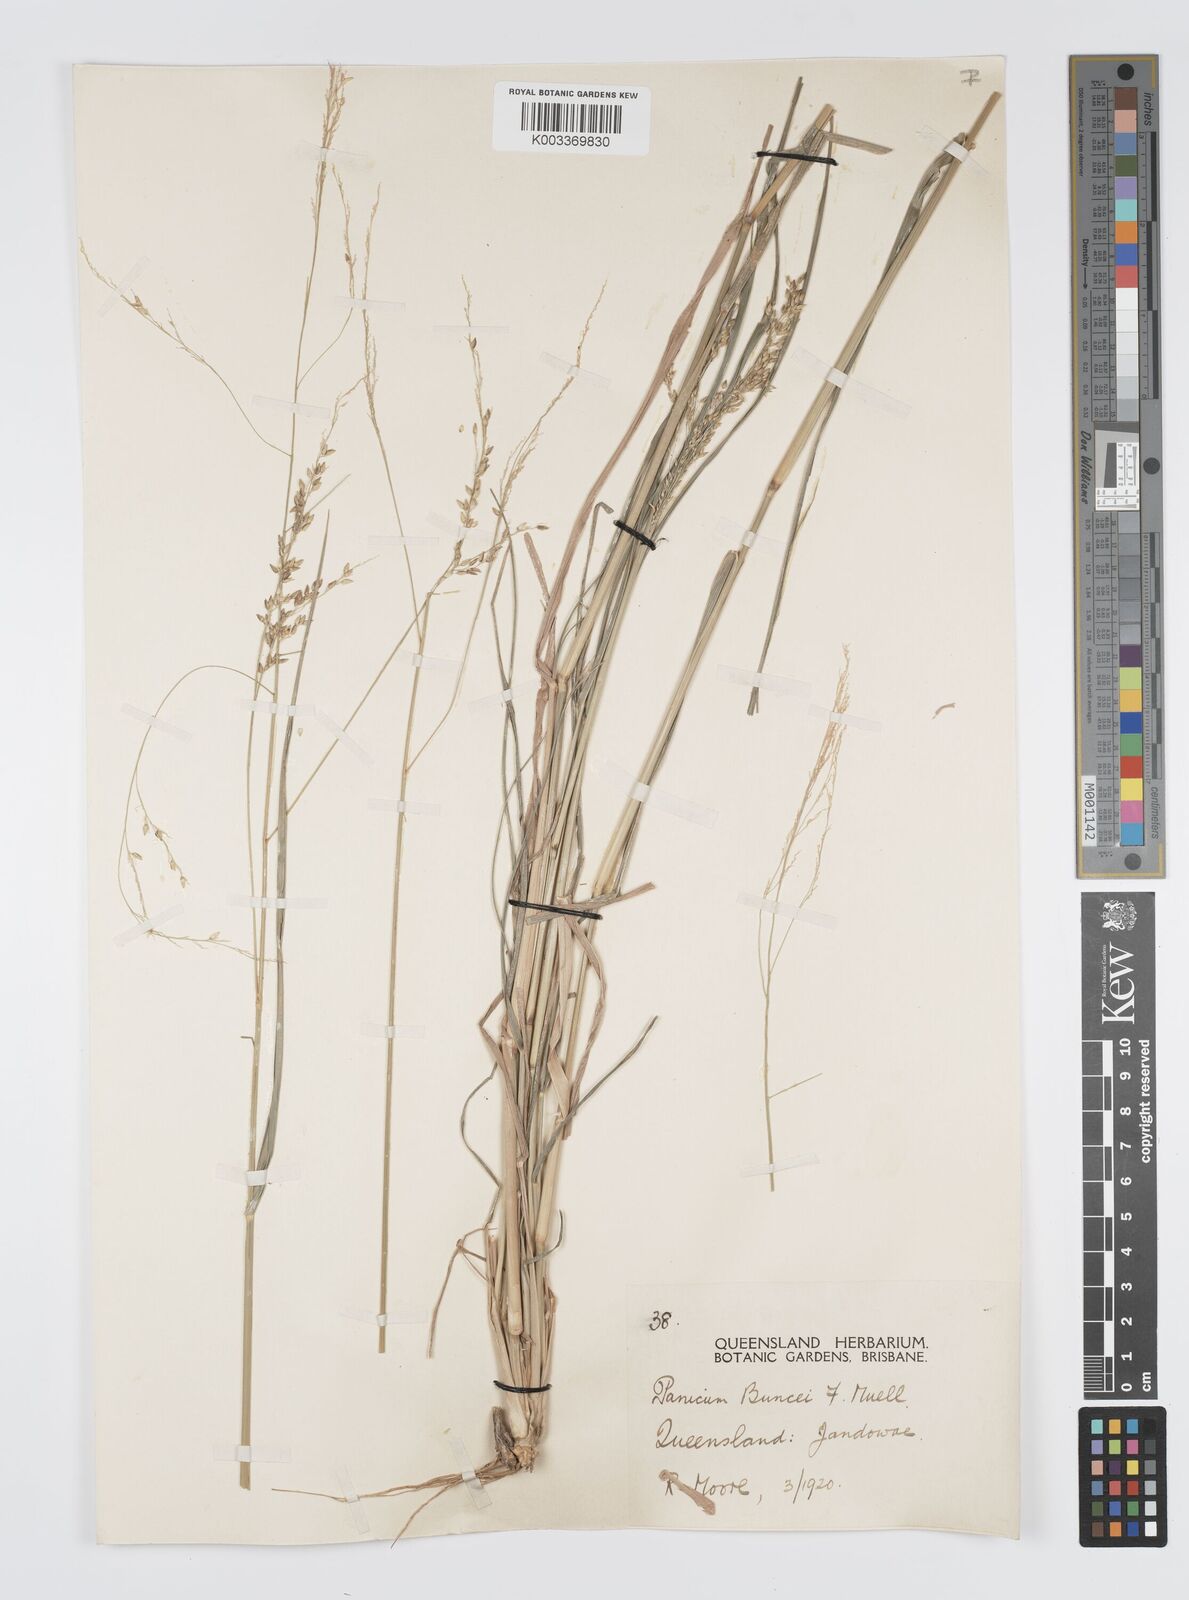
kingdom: Plantae
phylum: Tracheophyta
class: Liliopsida
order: Poales
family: Poaceae
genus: Panicum
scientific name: Panicum buncei
